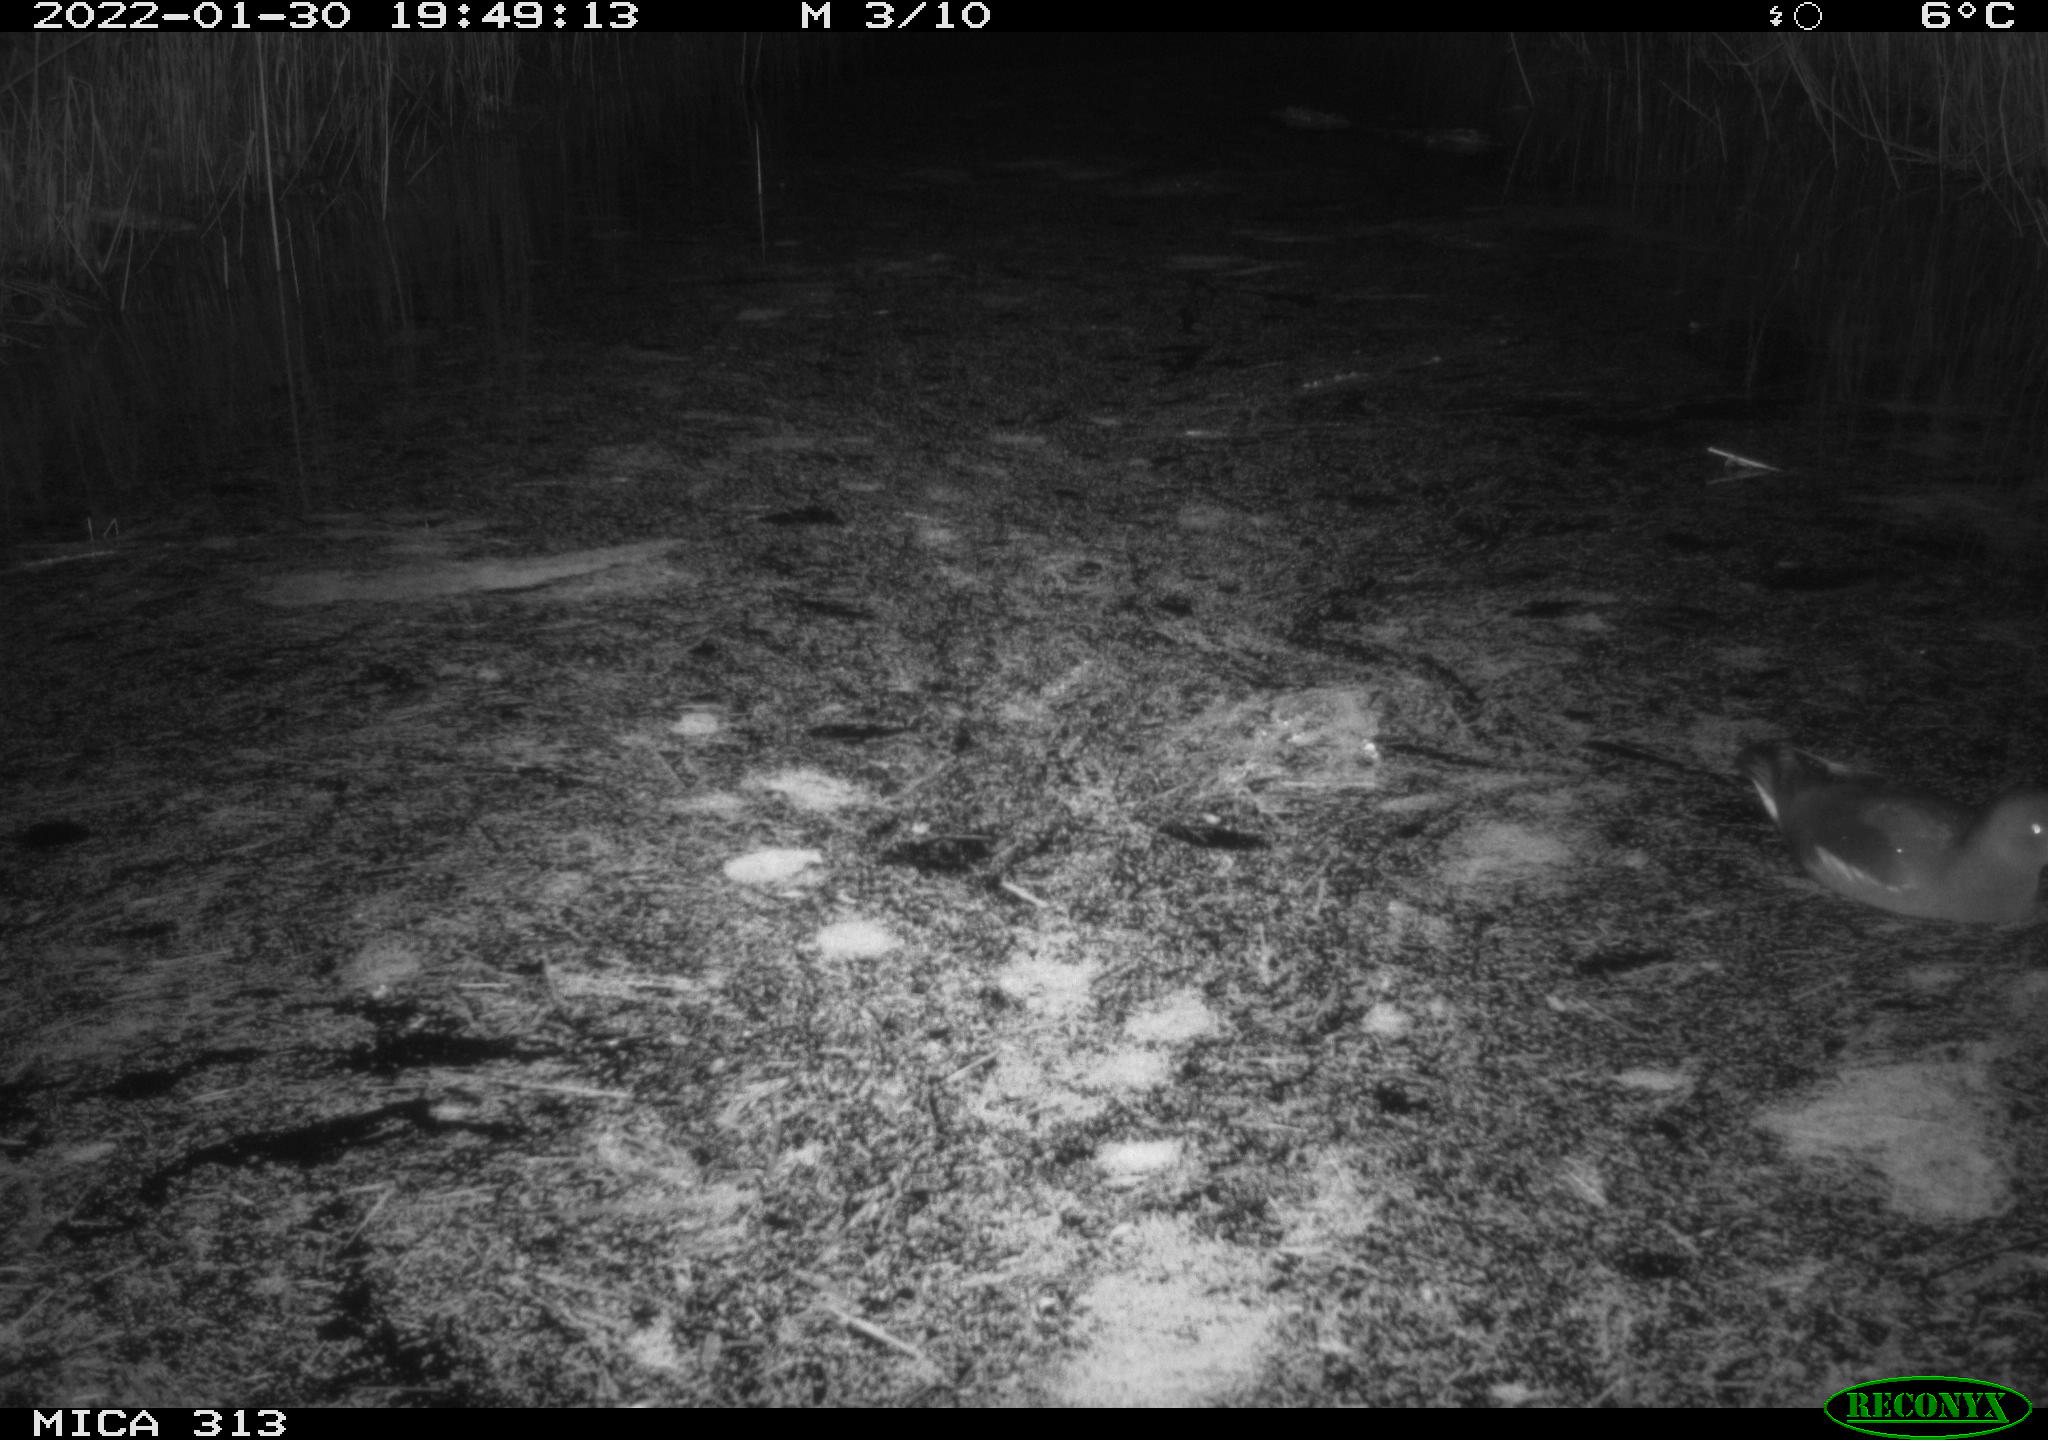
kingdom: Animalia
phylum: Chordata
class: Aves
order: Gruiformes
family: Rallidae
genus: Gallinula
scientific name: Gallinula chloropus
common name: Common moorhen
